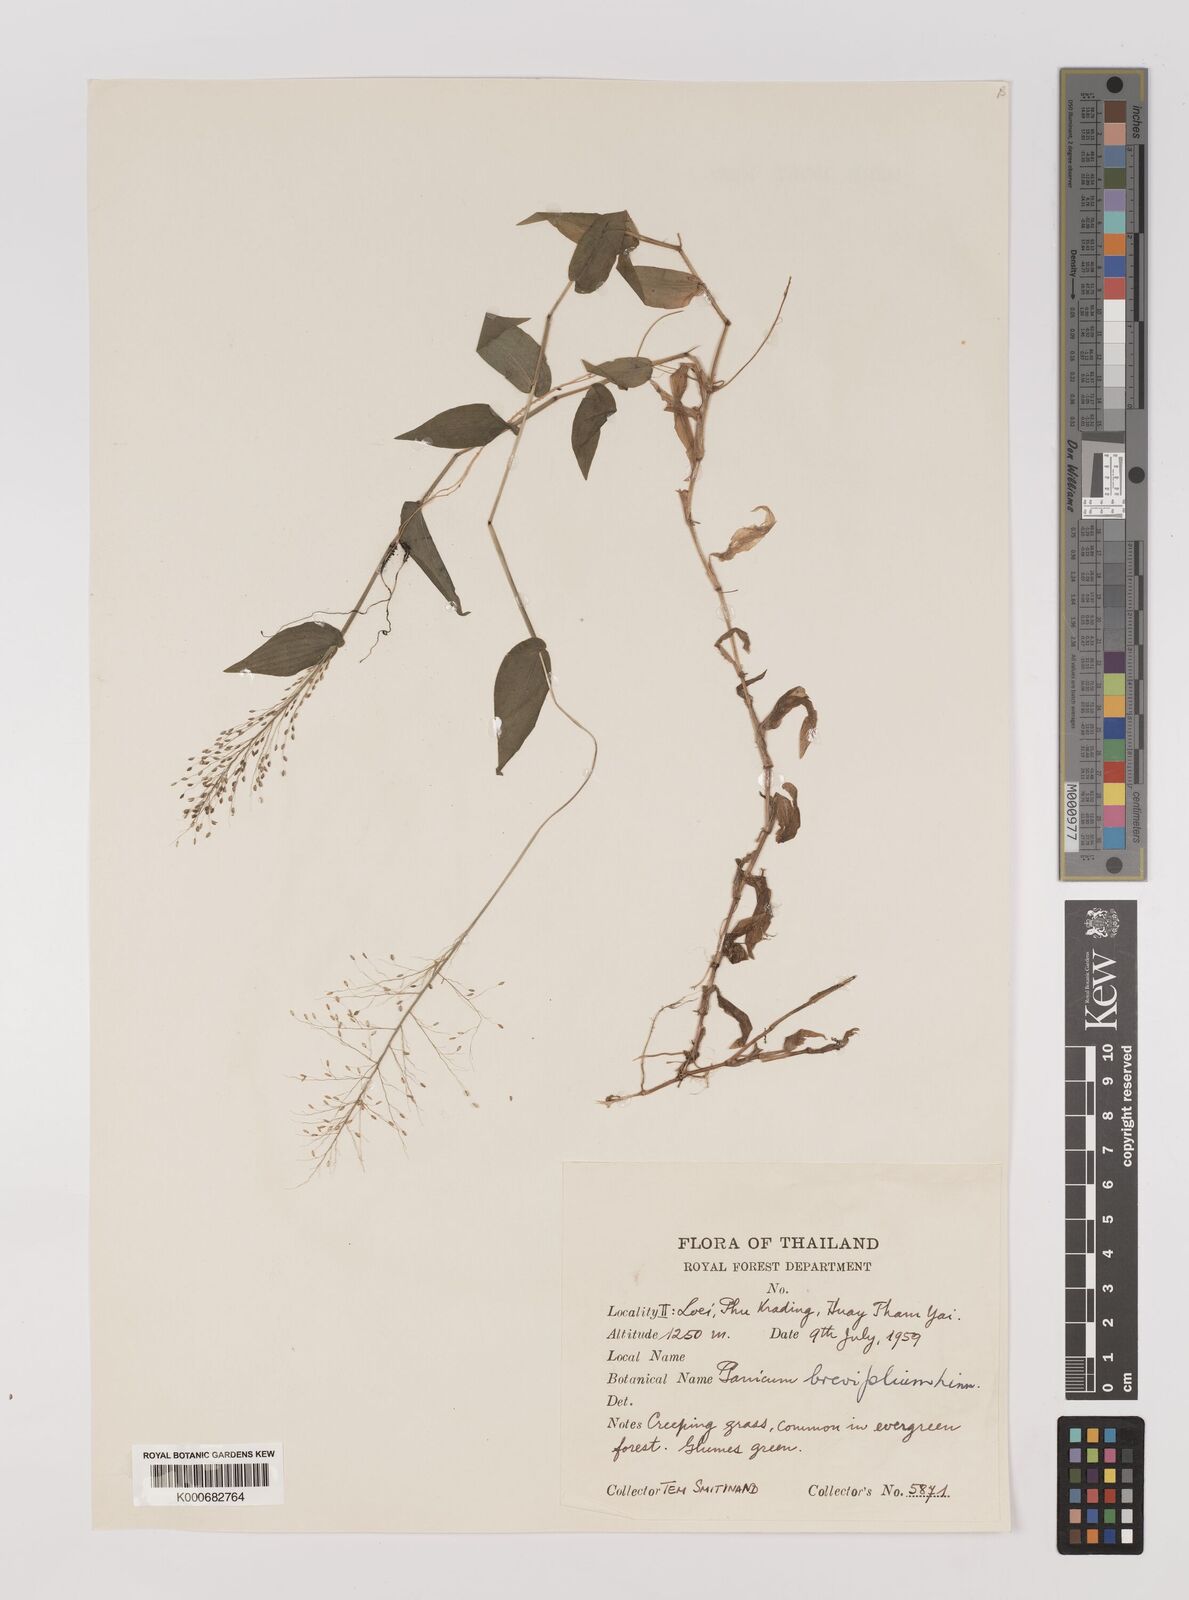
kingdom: Plantae
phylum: Tracheophyta
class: Liliopsida
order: Poales
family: Poaceae
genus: Panicum
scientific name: Panicum brevifolium
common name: Shortleaf panic grass
